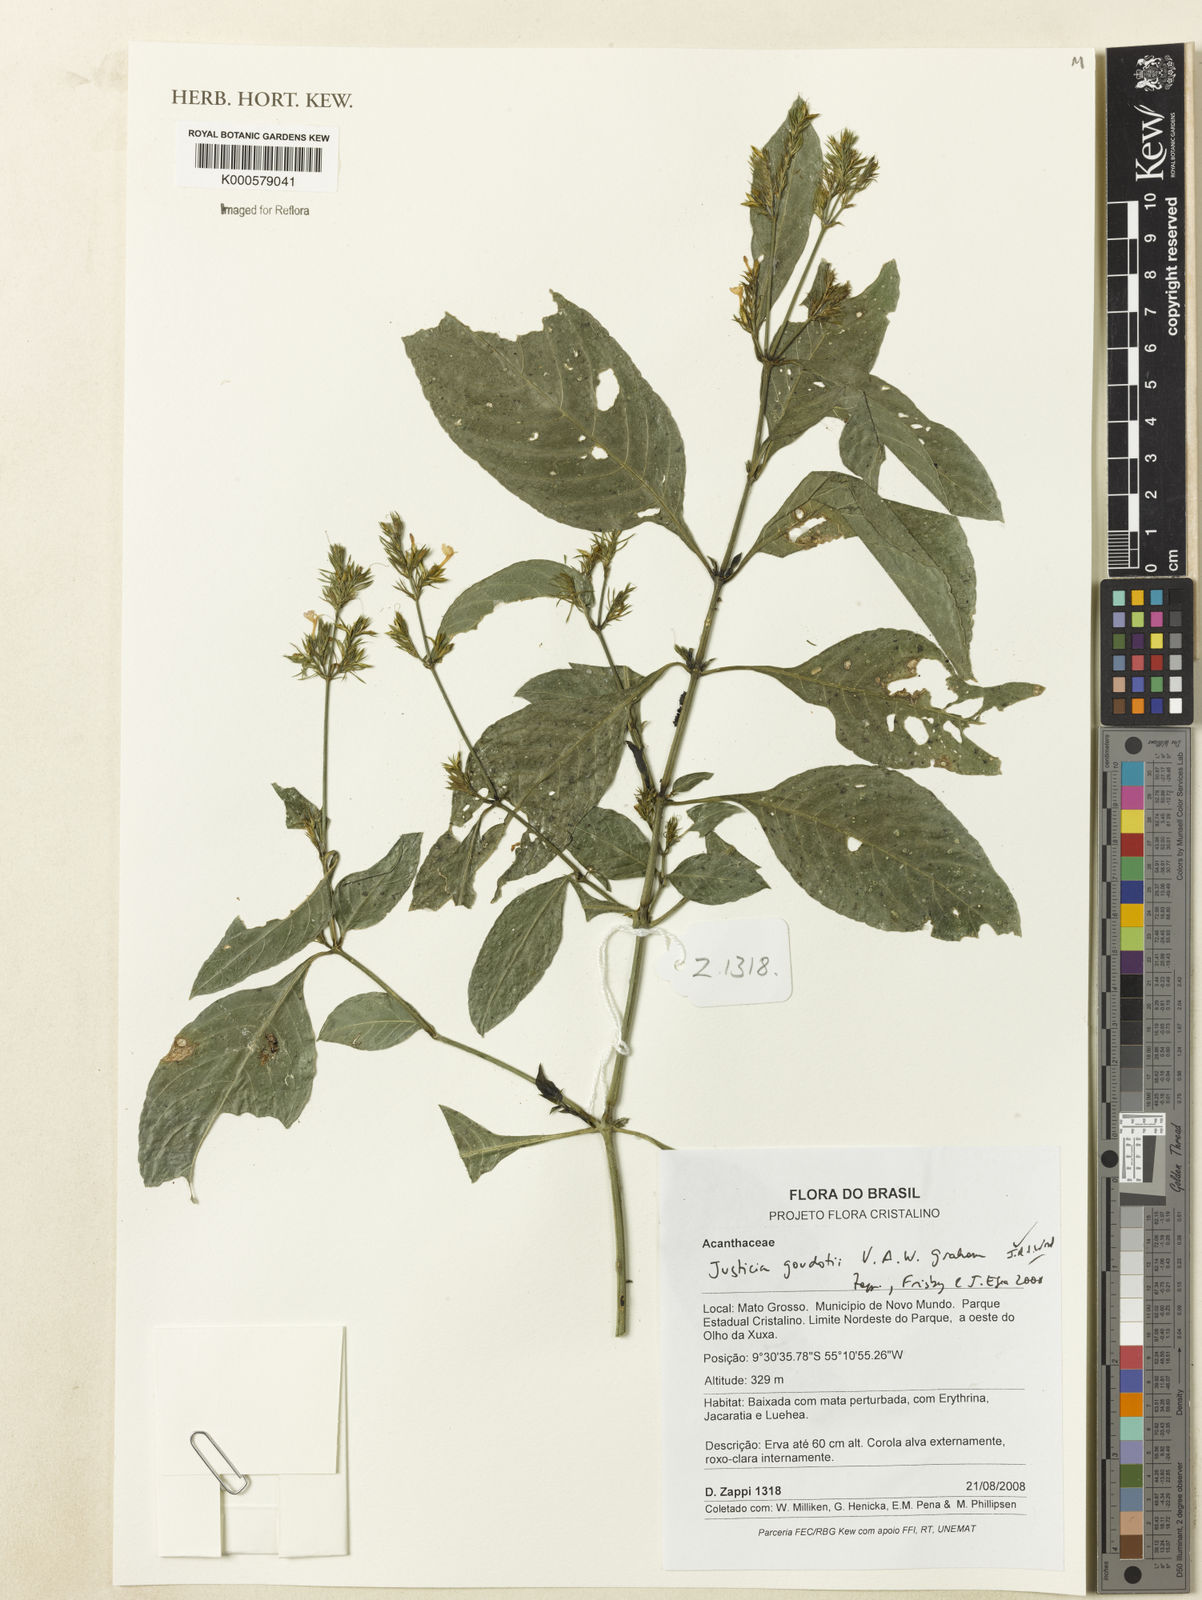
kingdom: Plantae
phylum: Tracheophyta
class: Magnoliopsida
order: Lamiales
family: Acanthaceae
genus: Justicia
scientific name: Justicia goudotii
